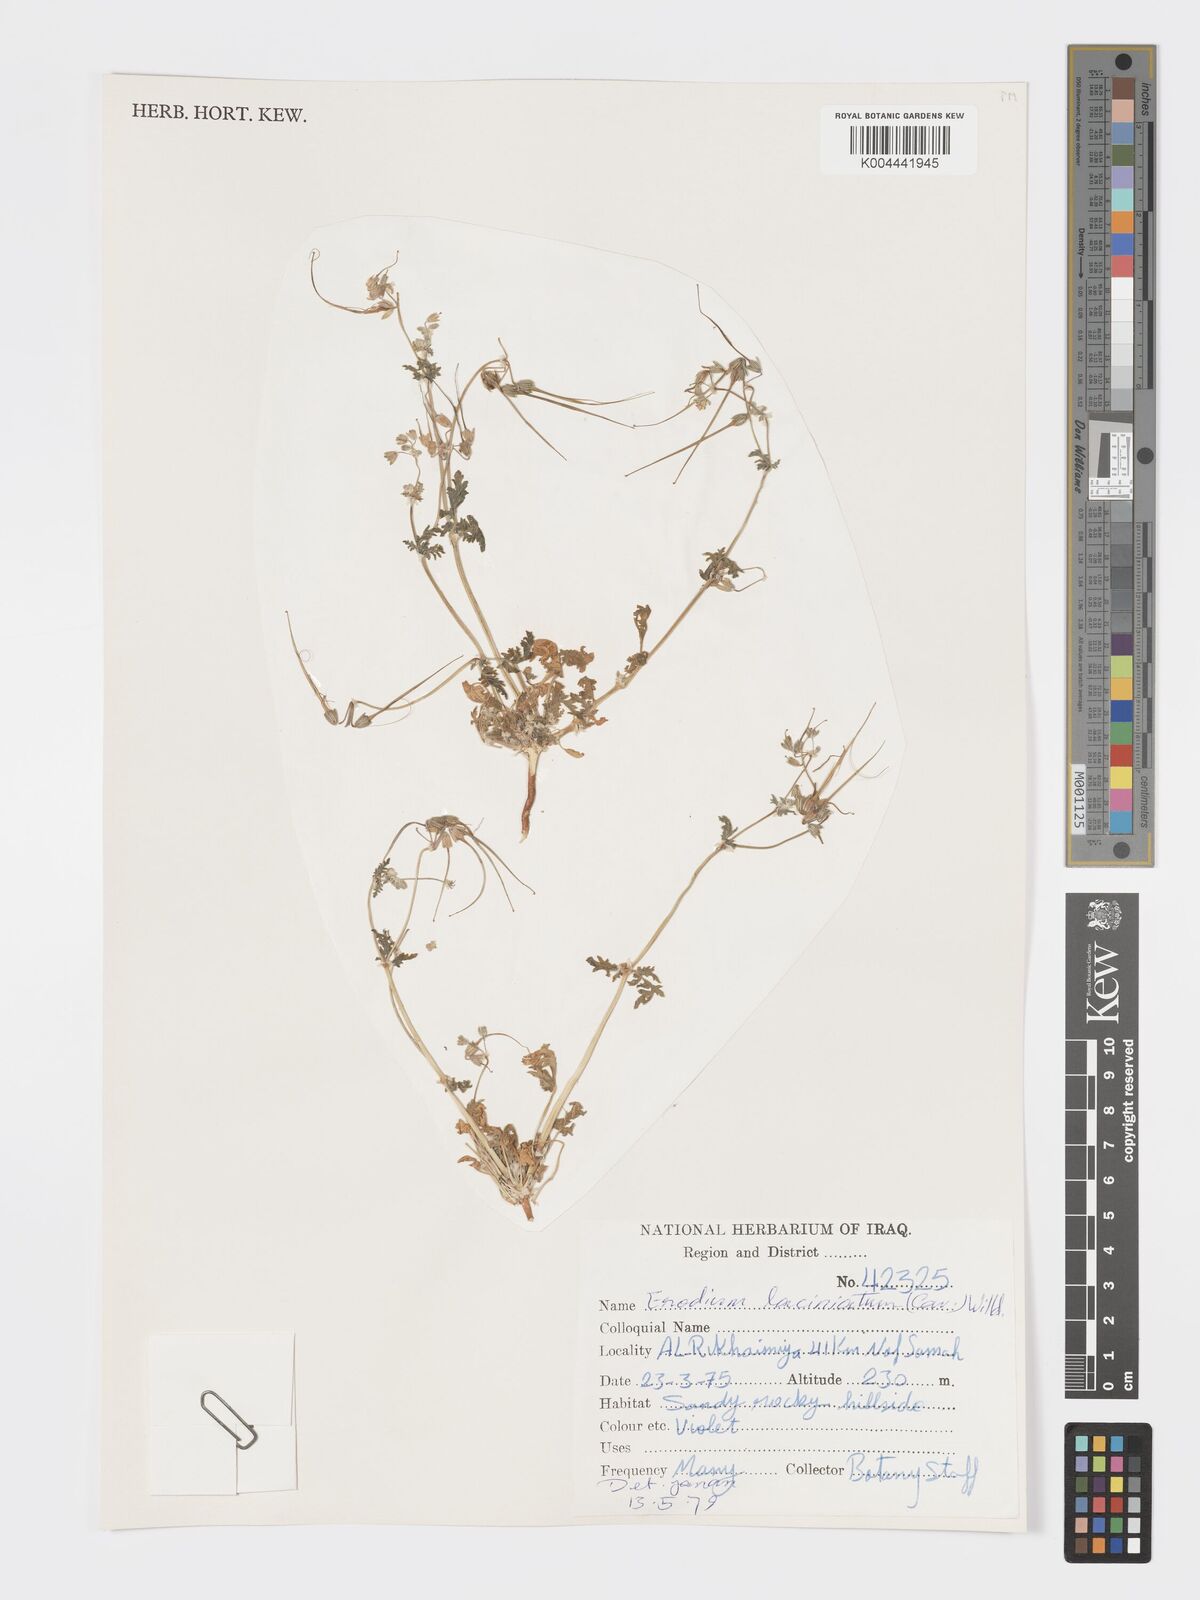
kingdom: Plantae
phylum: Tracheophyta
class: Magnoliopsida
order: Geraniales
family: Geraniaceae
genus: Erodium
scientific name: Erodium laciniatum
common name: Cutleaf stork's bill
